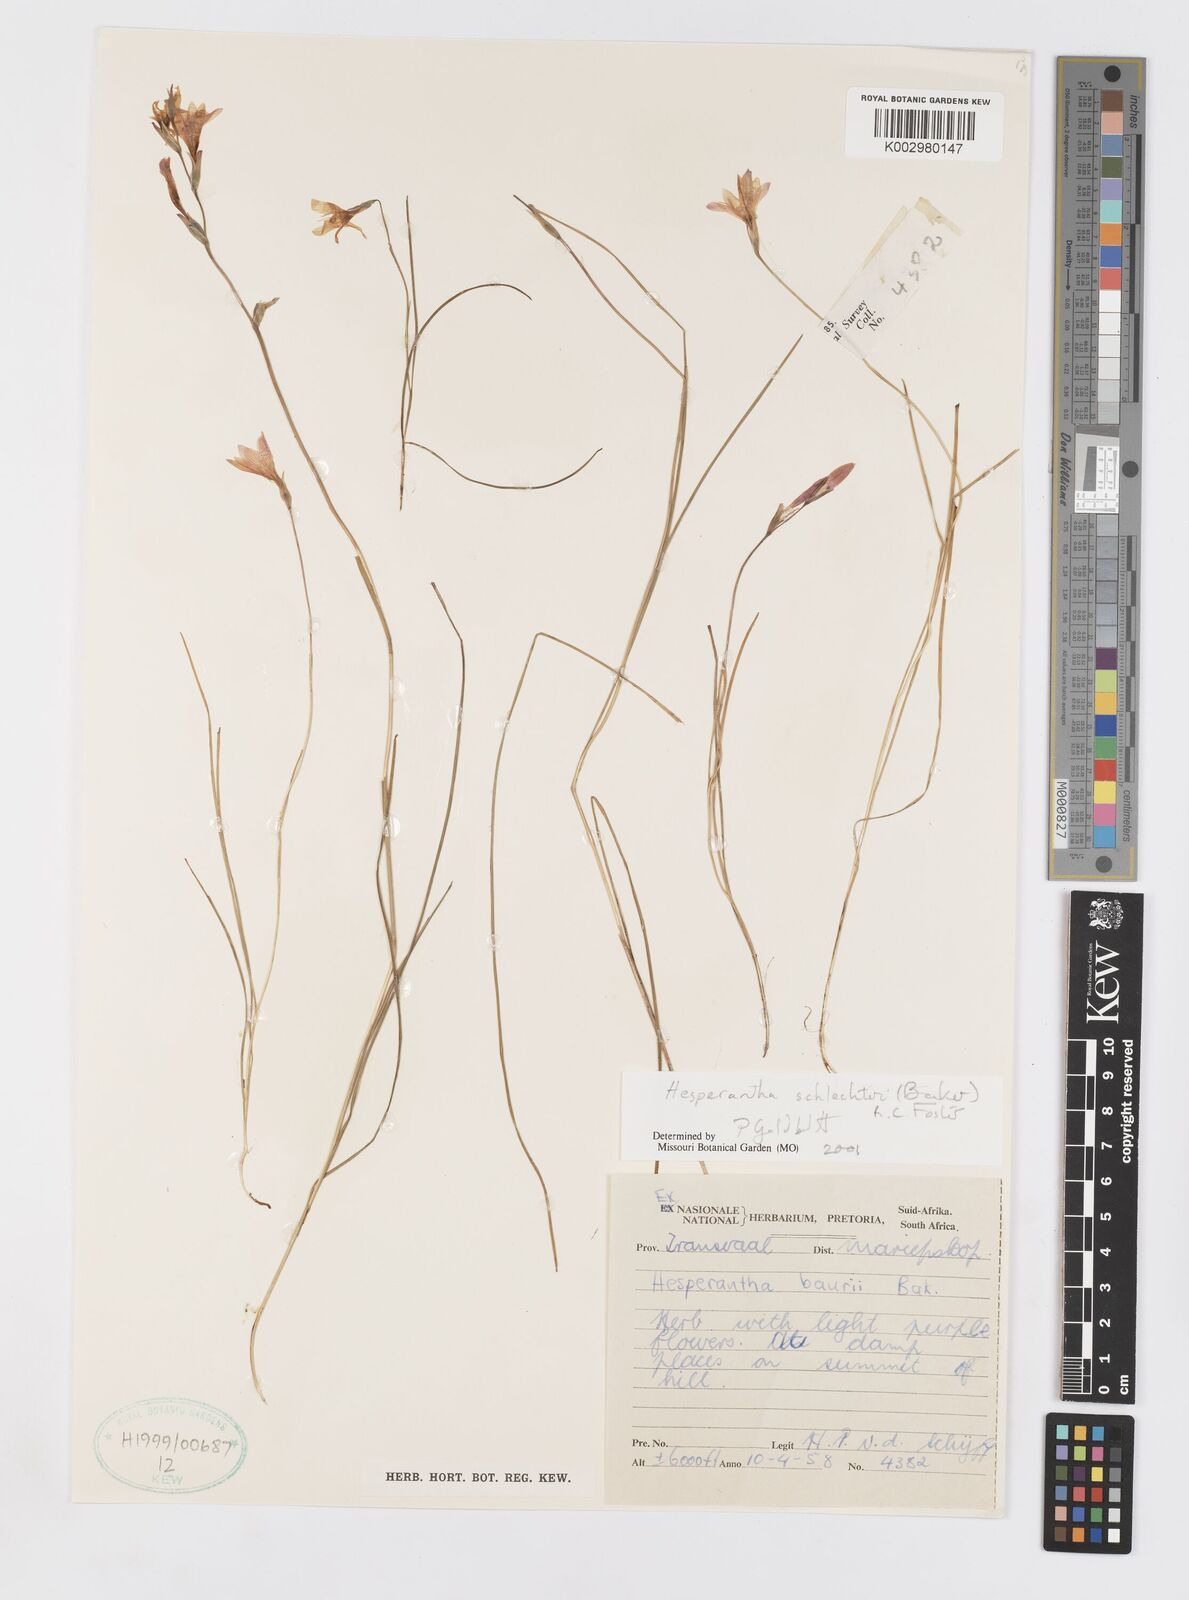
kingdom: Plantae
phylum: Tracheophyta
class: Liliopsida
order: Asparagales
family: Iridaceae
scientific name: Iridaceae
